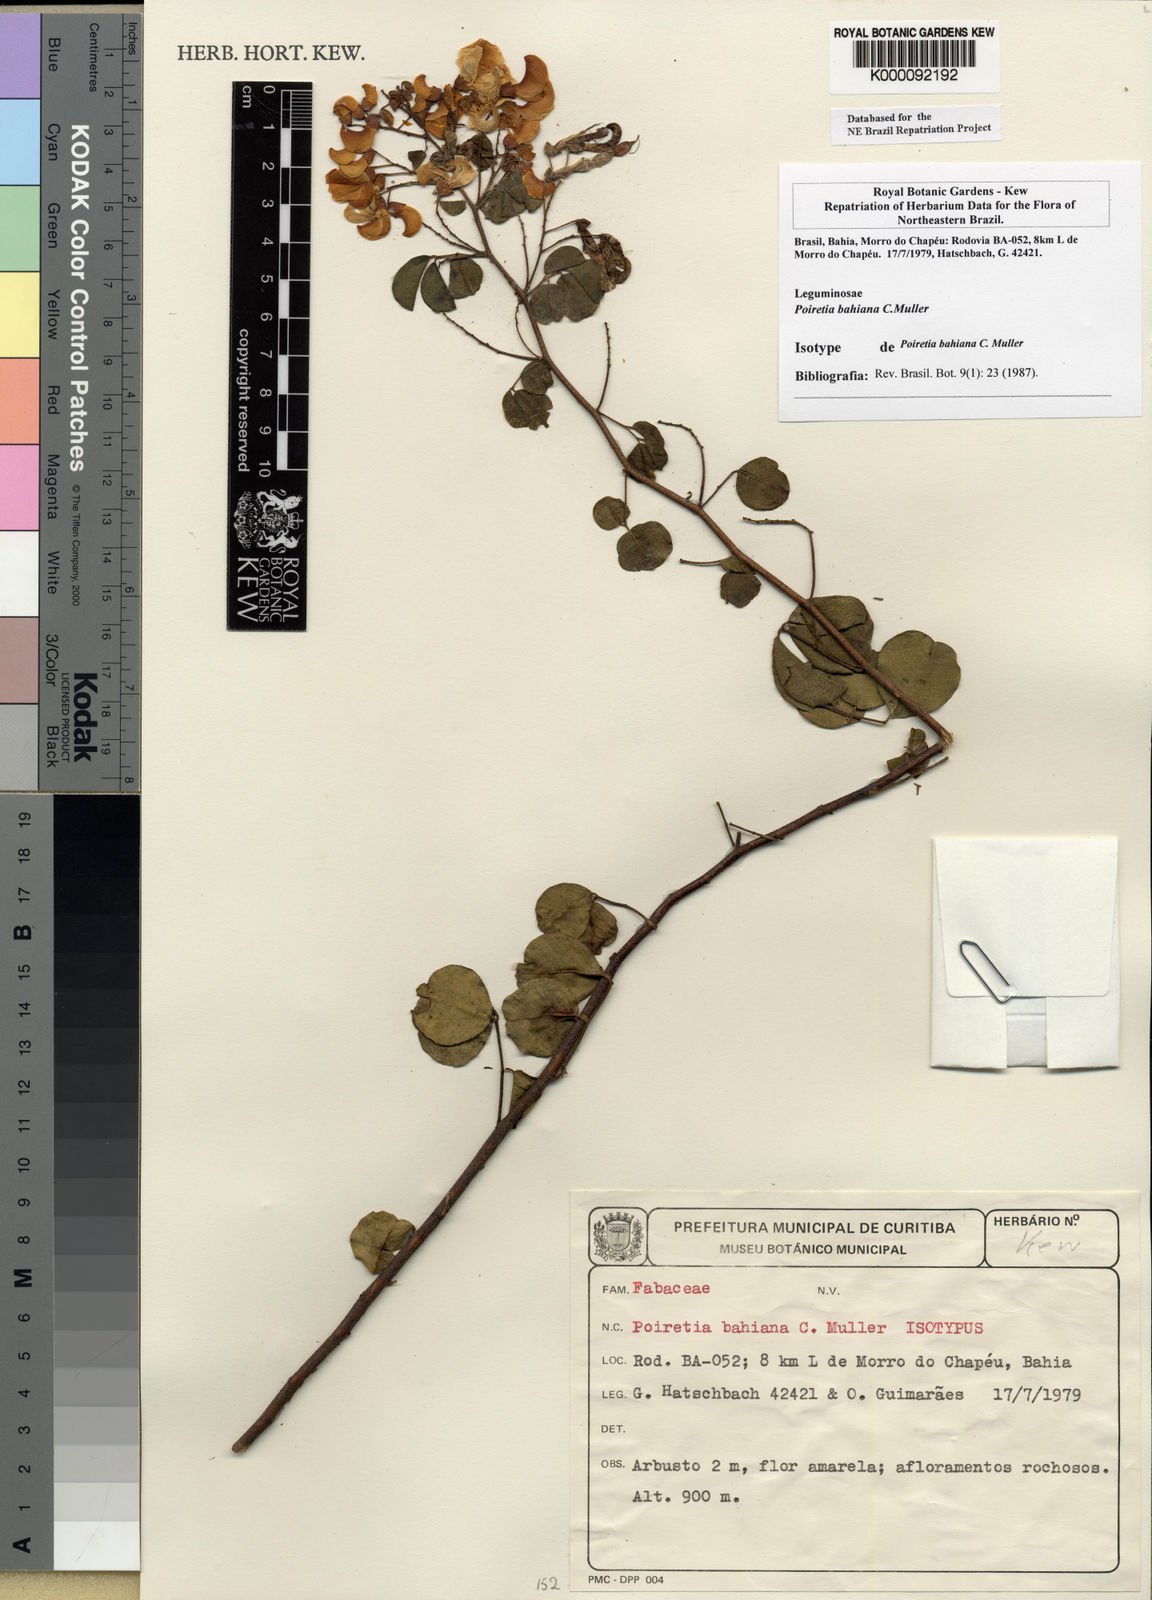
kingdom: Plantae
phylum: Tracheophyta
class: Magnoliopsida
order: Fabales
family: Fabaceae
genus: Poiretia
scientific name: Poiretia
